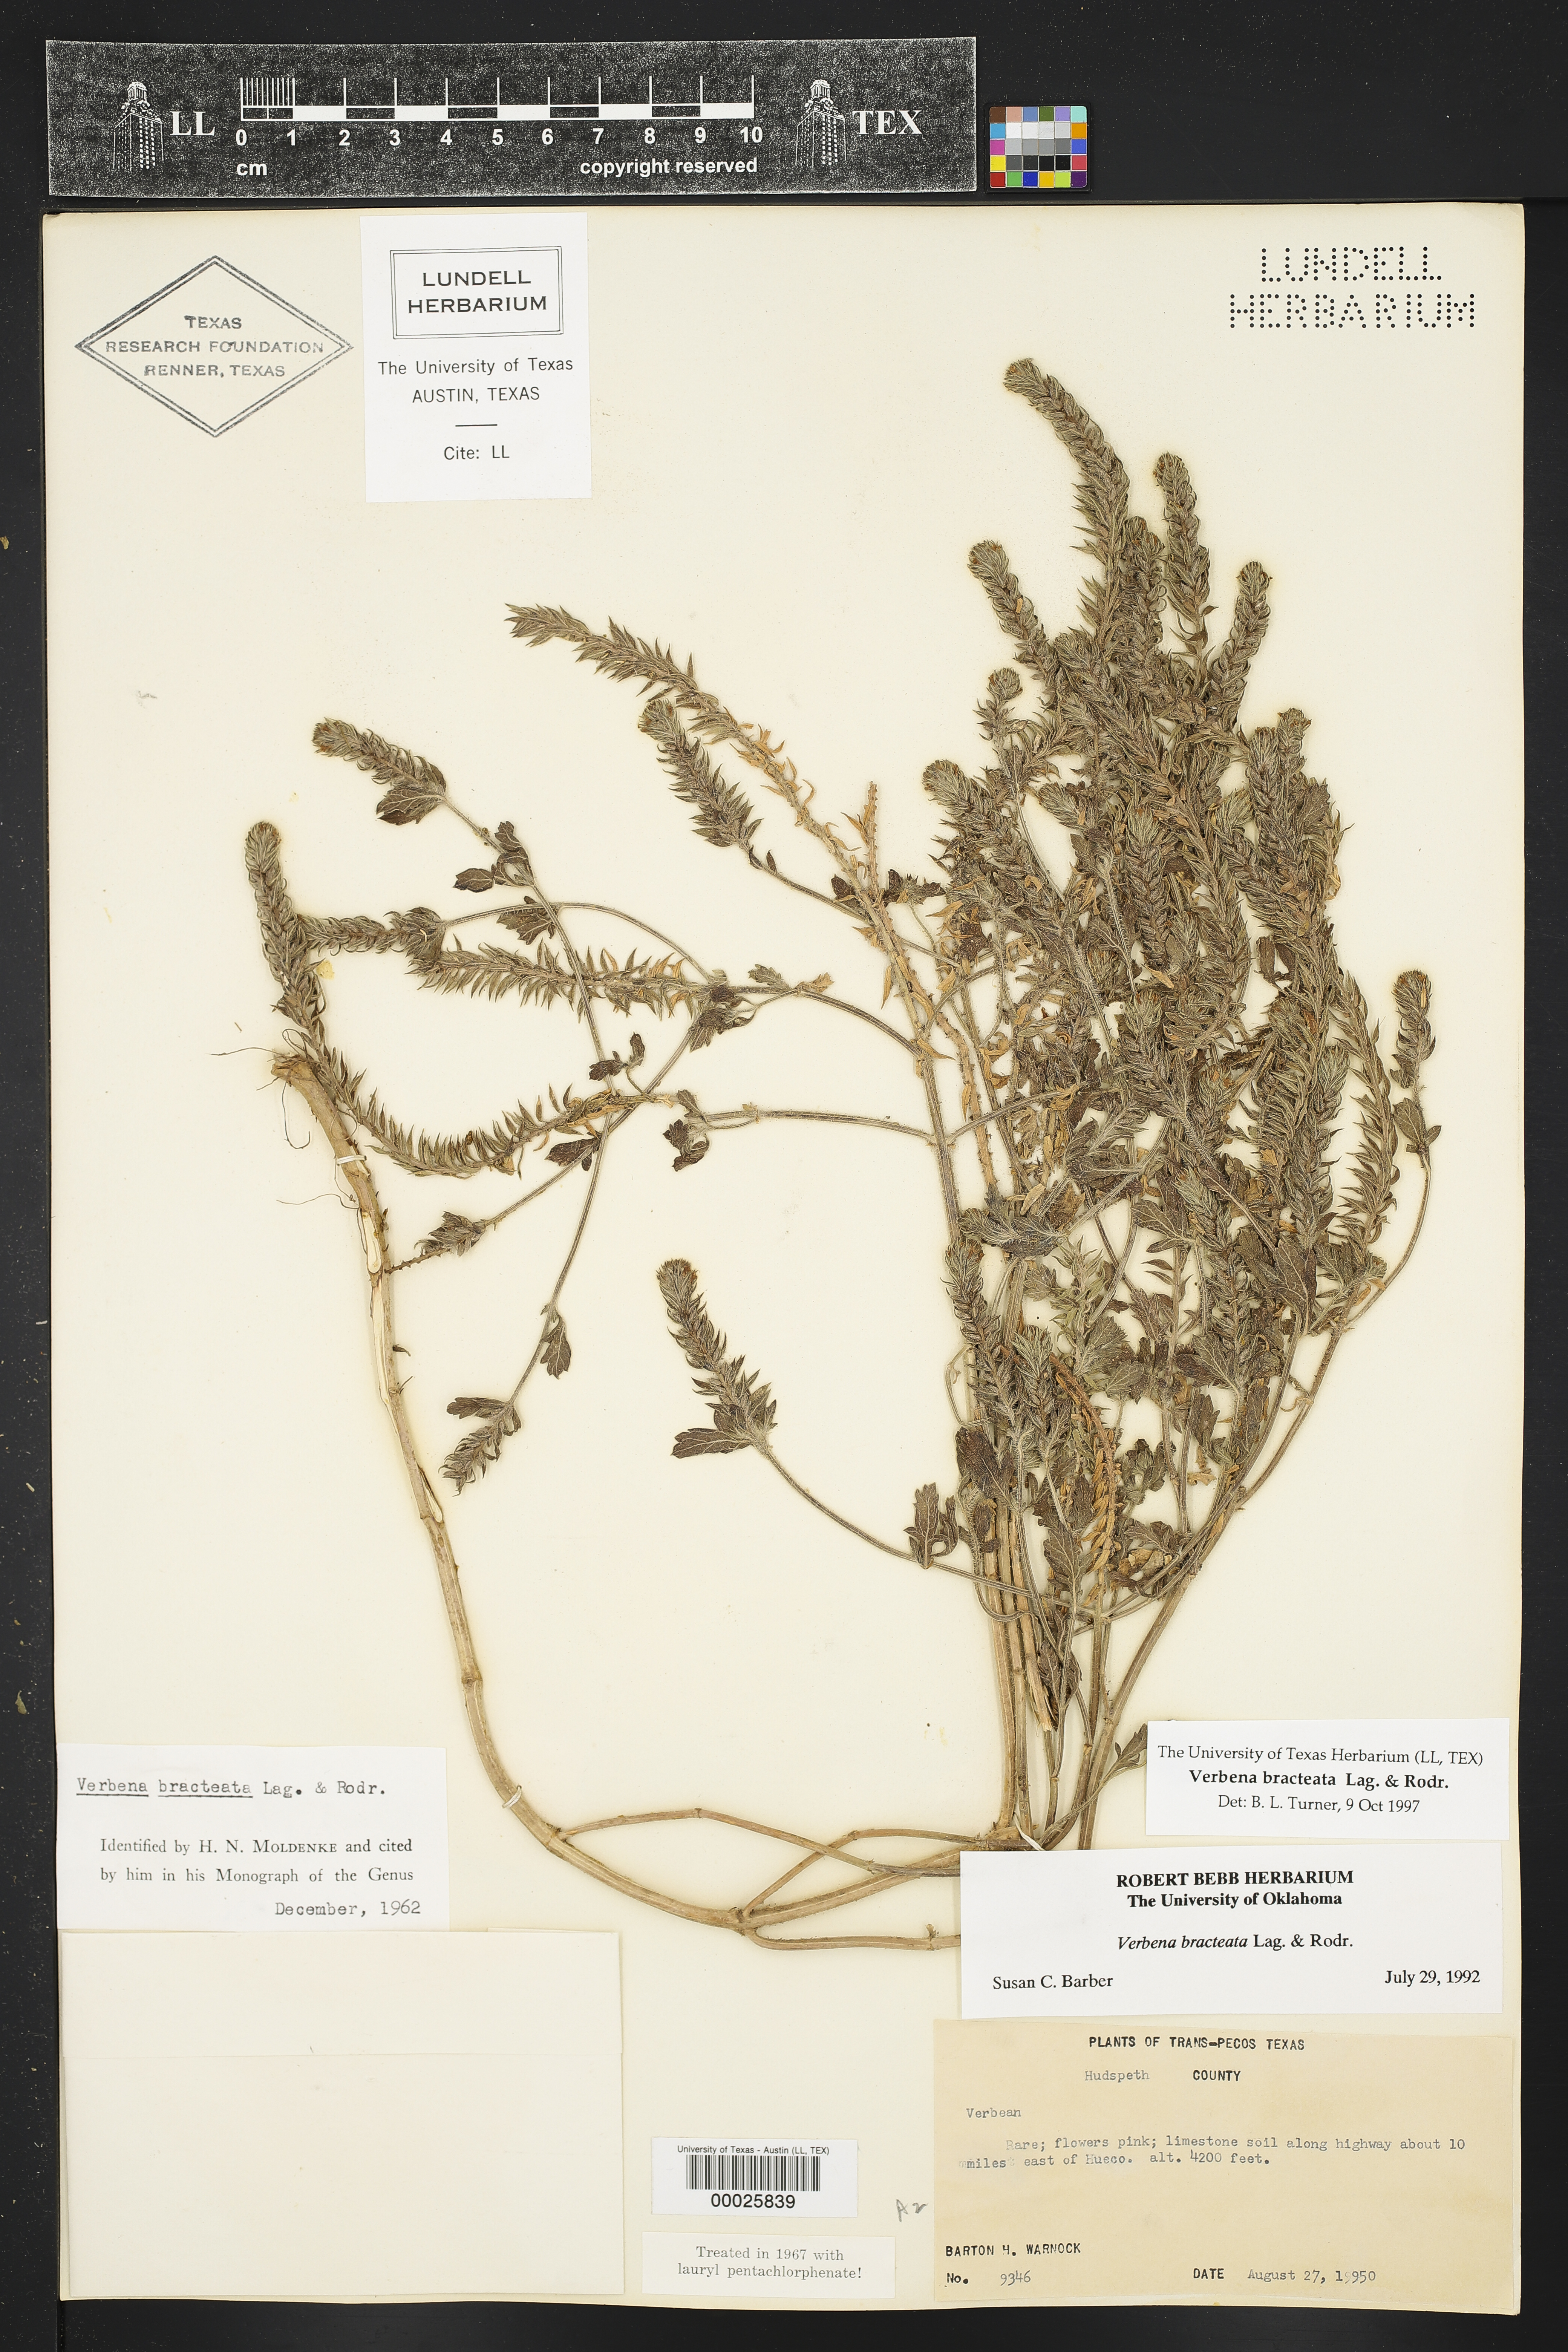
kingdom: Plantae
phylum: Tracheophyta
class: Magnoliopsida
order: Lamiales
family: Verbenaceae
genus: Verbena
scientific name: Verbena bracteata
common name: Bracted vervain
